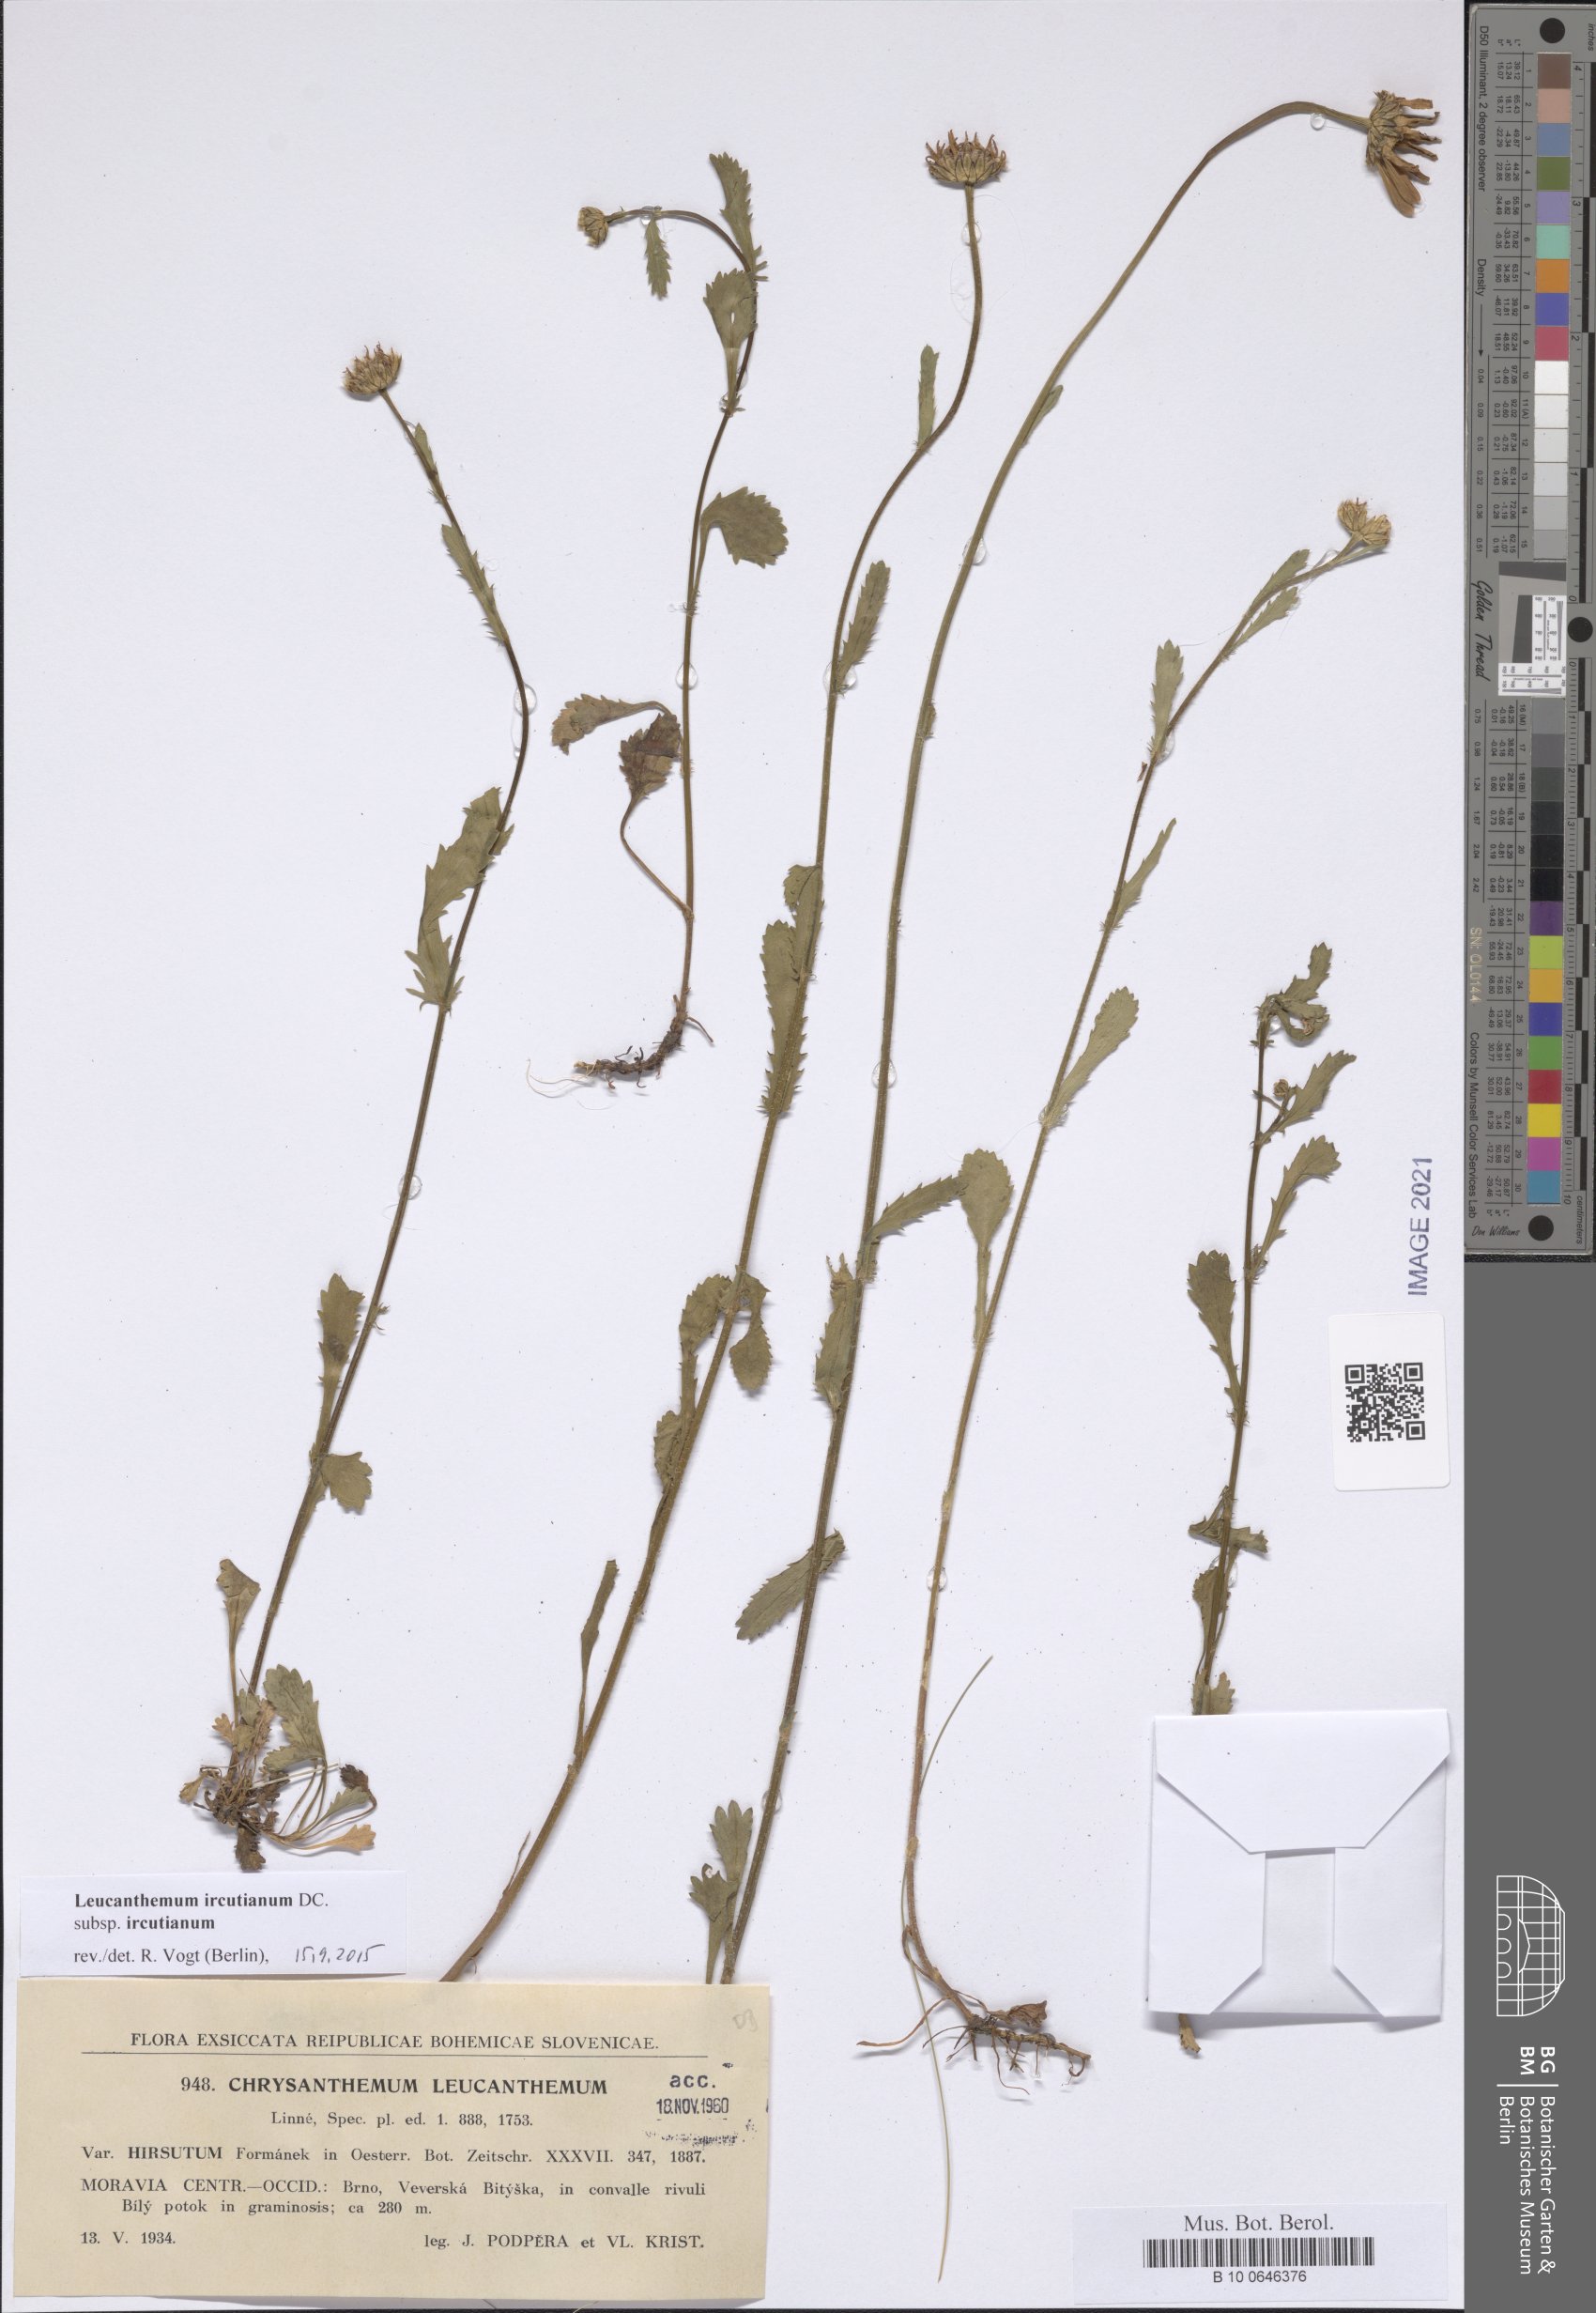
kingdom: Plantae
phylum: Tracheophyta
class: Magnoliopsida
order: Asterales
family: Asteraceae
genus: Leucanthemum
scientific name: Leucanthemum ircutianum
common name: Daisy
